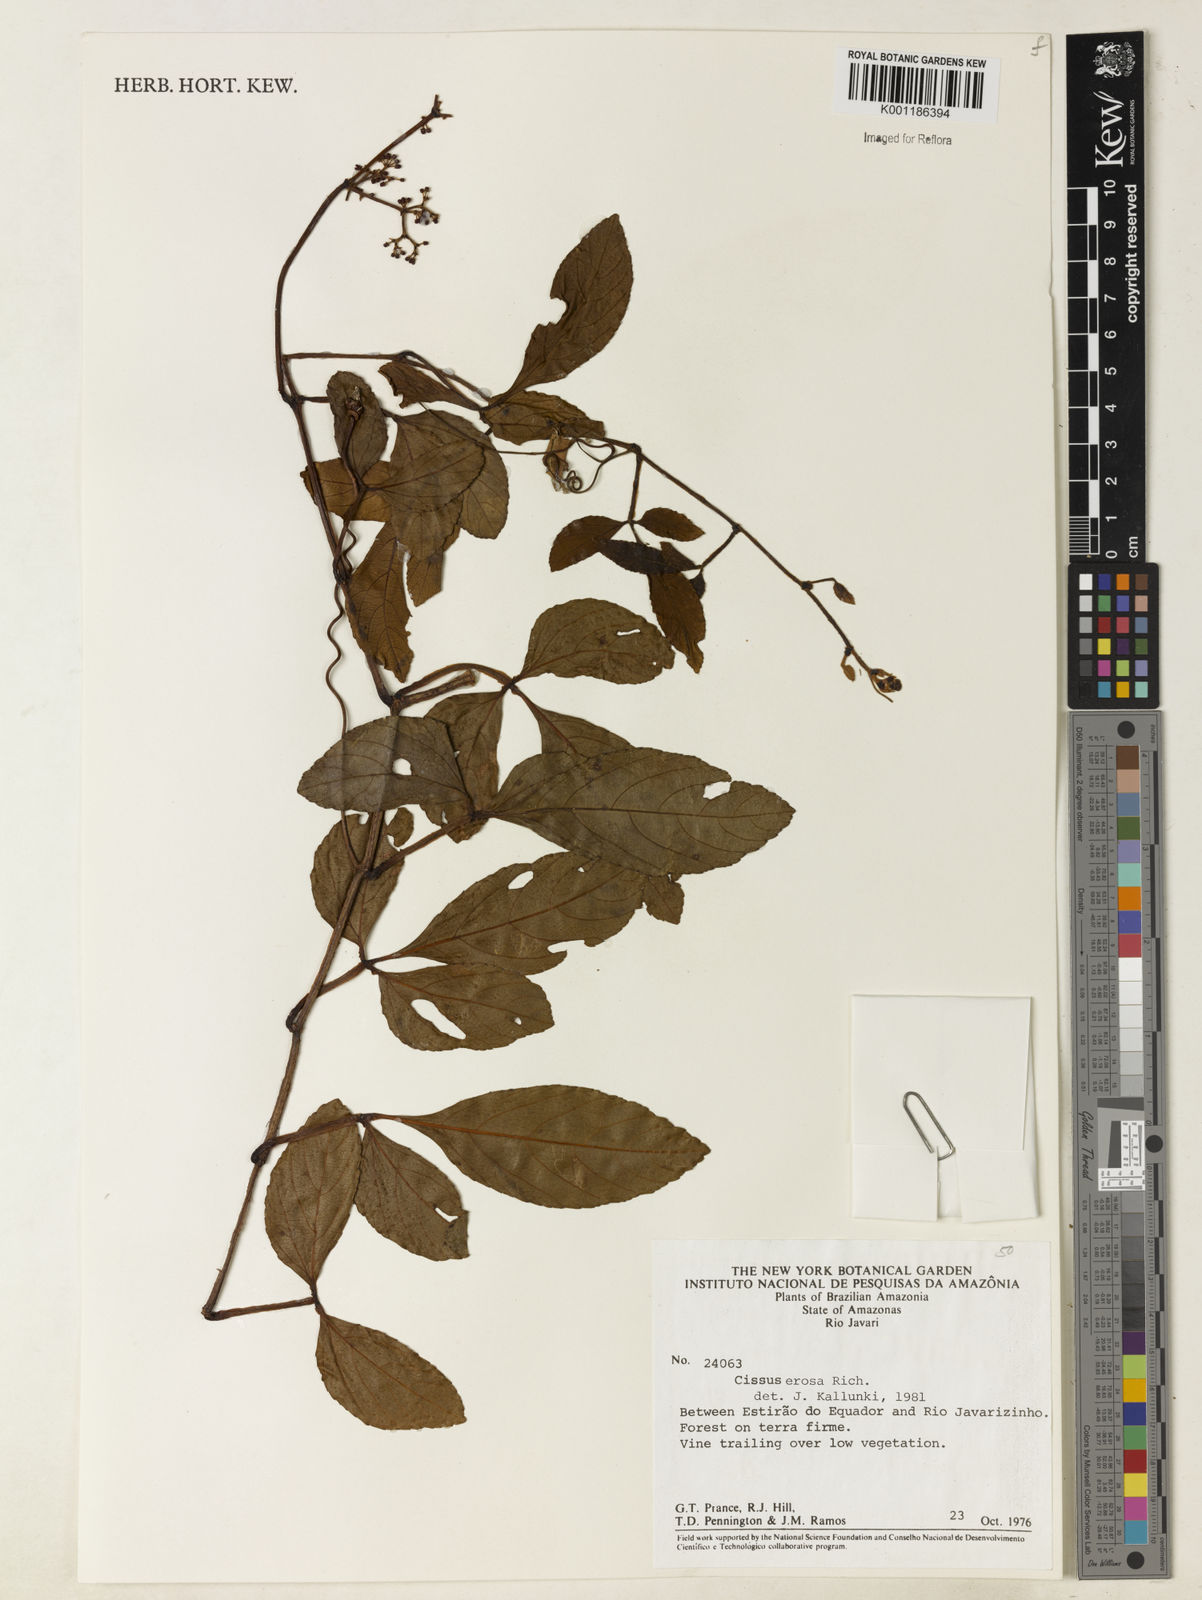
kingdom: Plantae
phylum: Tracheophyta
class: Magnoliopsida
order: Vitales
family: Vitaceae
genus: Cissus
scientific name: Cissus erosa
